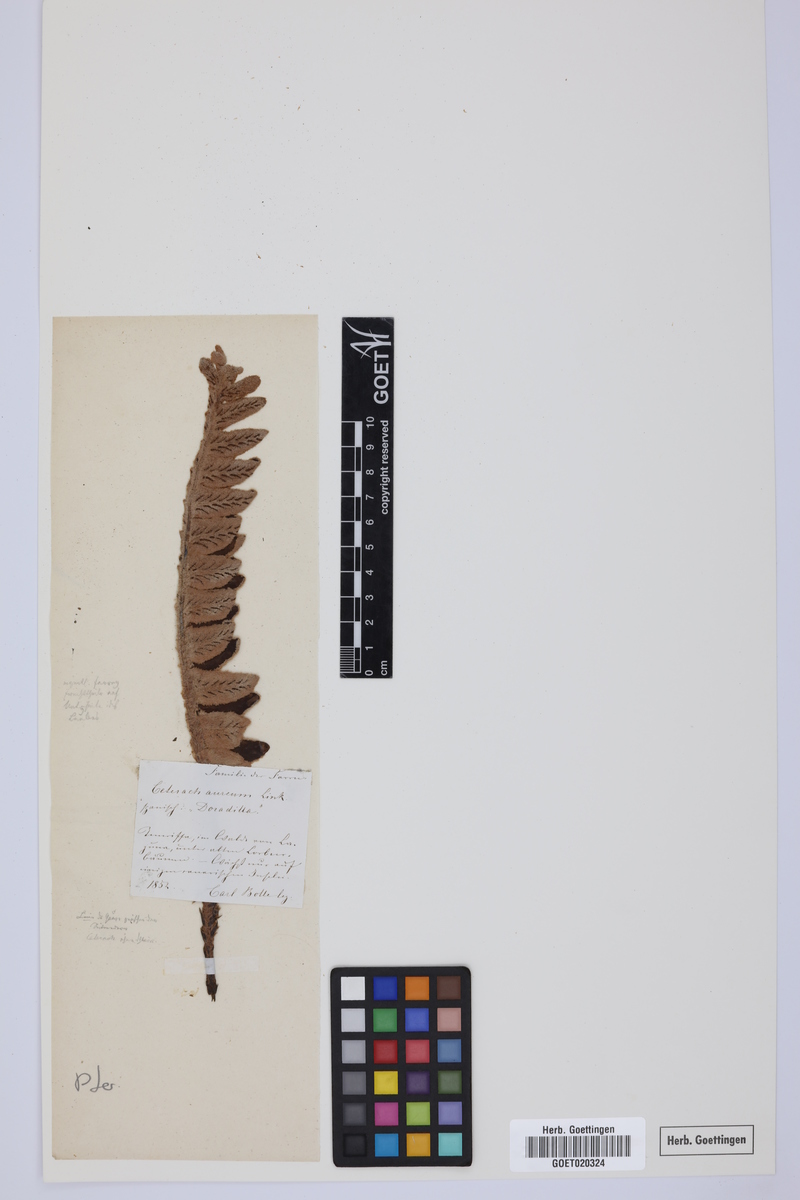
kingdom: Plantae
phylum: Tracheophyta
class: Polypodiopsida
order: Polypodiales
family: Aspleniaceae
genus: Asplenium
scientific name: Asplenium aureum
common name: Golden rustyback fern
